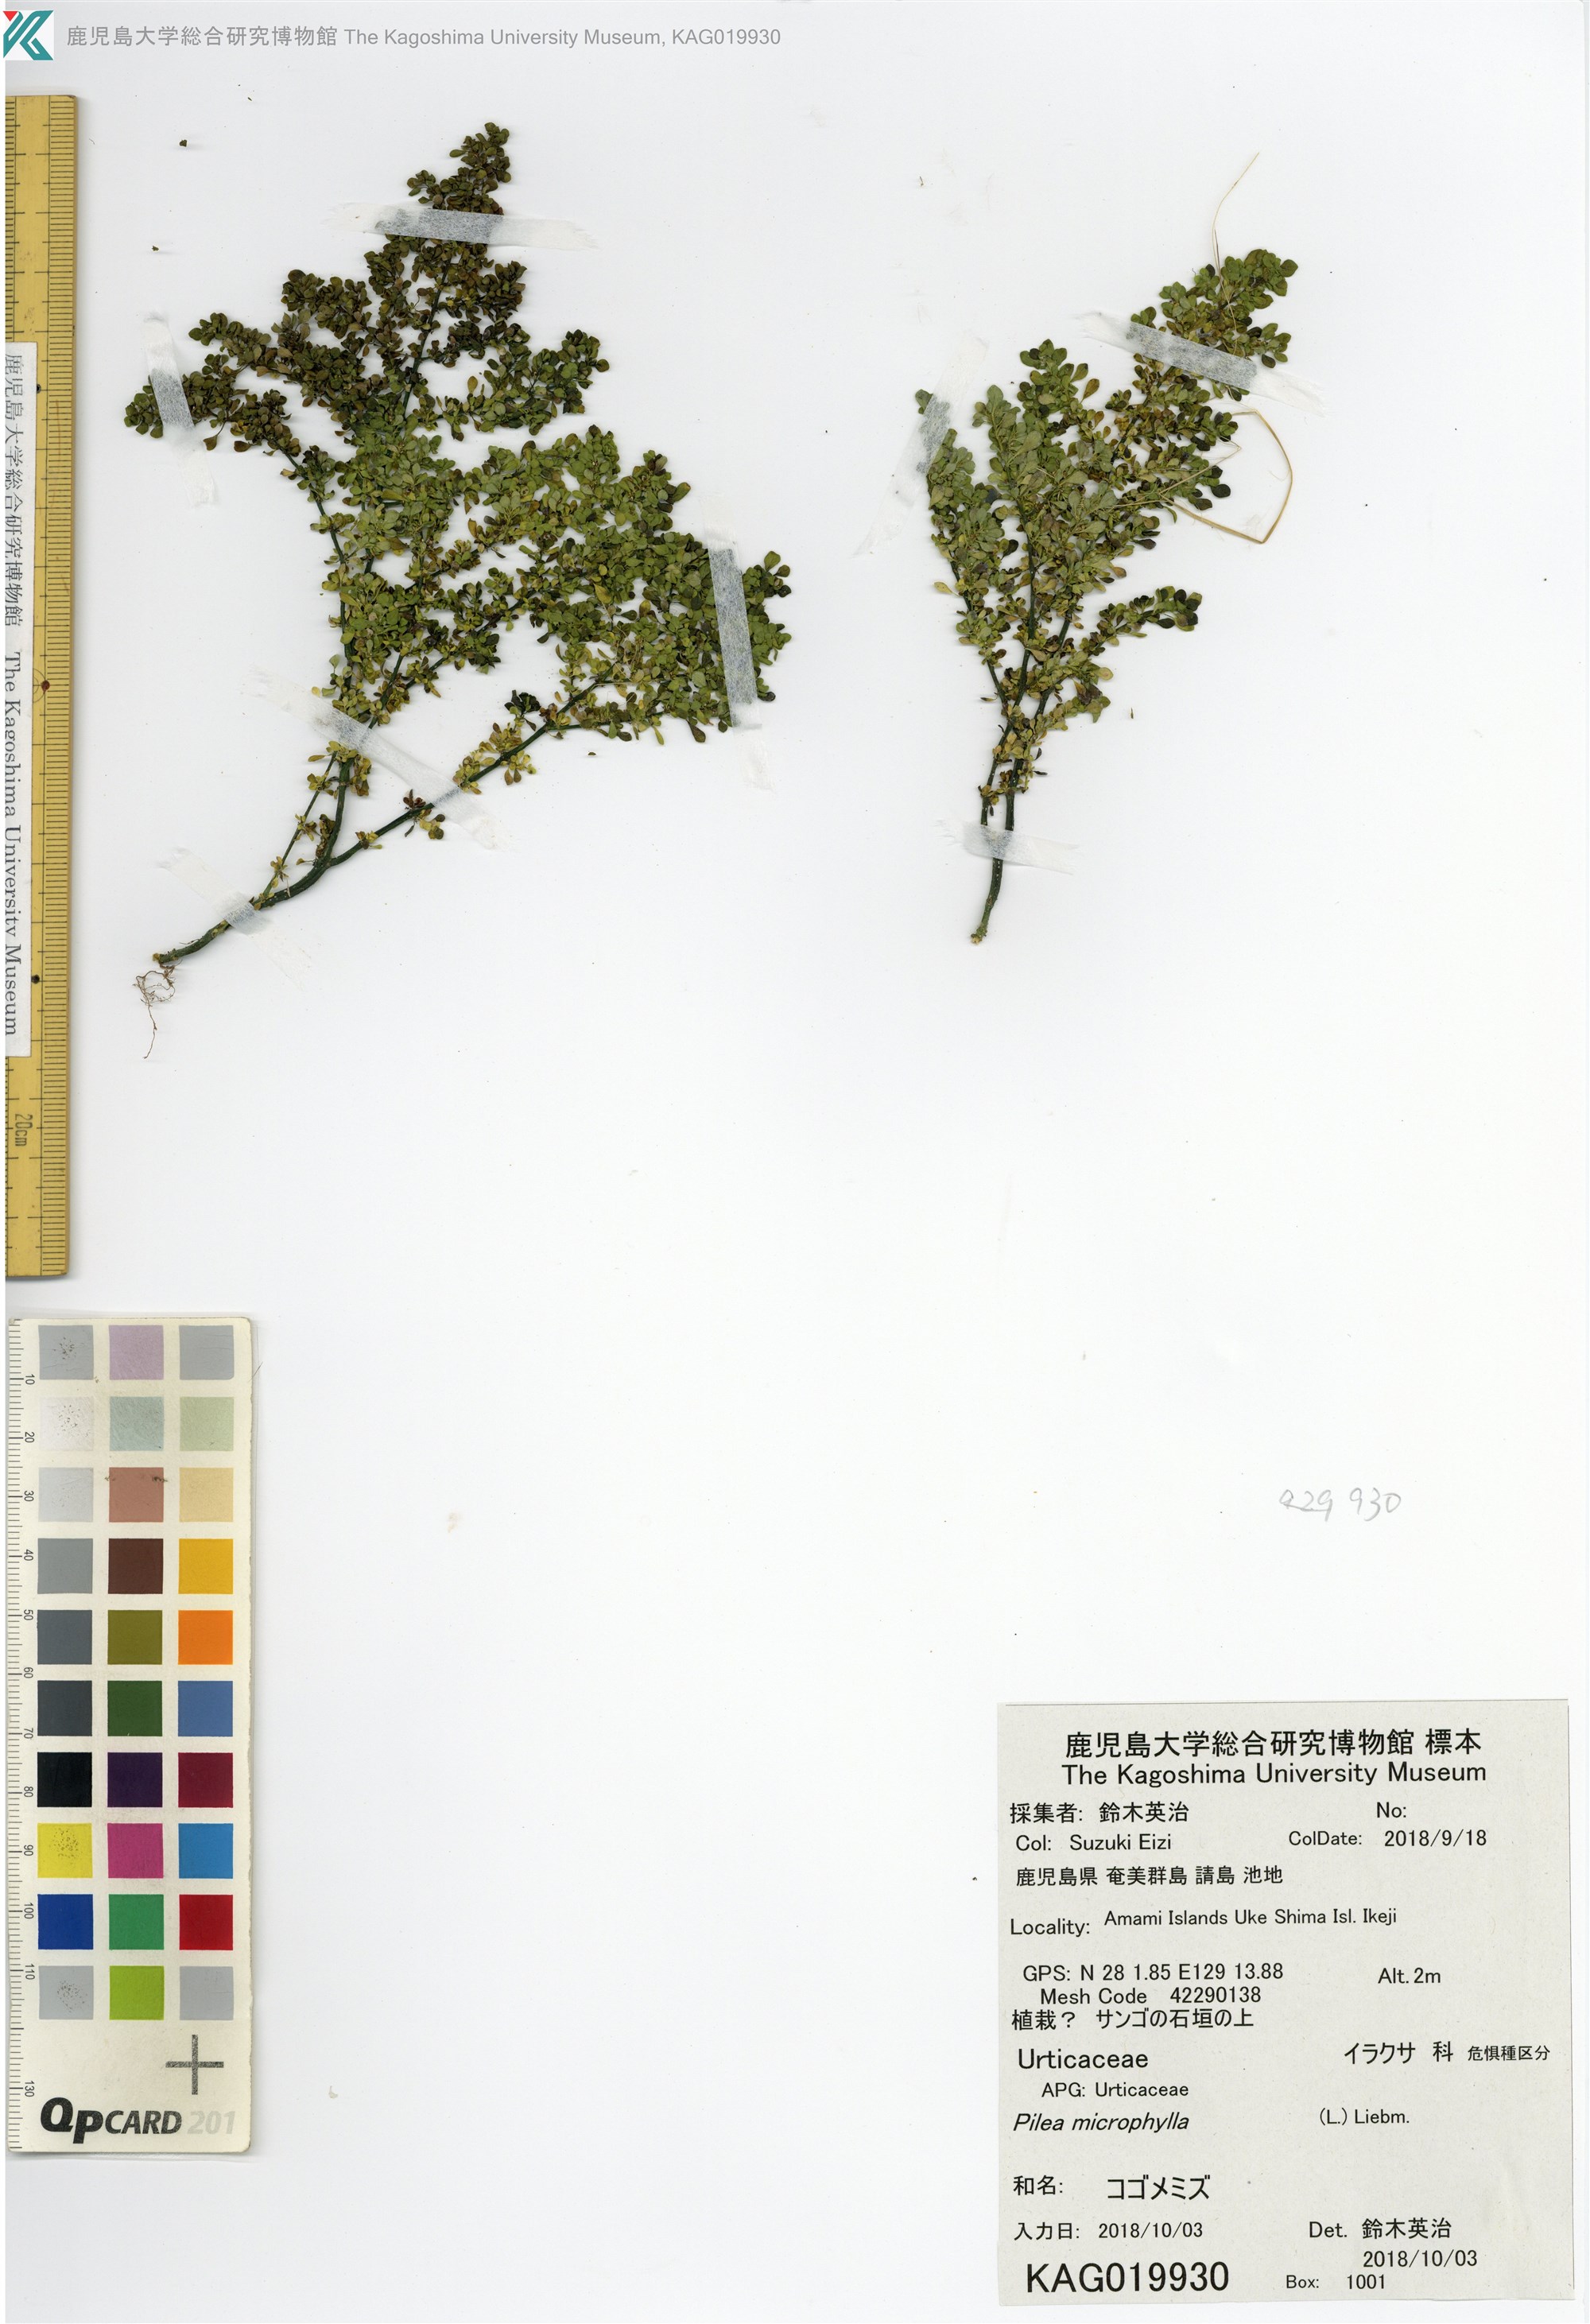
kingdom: Plantae
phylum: Tracheophyta
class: Magnoliopsida
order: Rosales
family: Urticaceae
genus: Pilea
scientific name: Pilea microphylla
